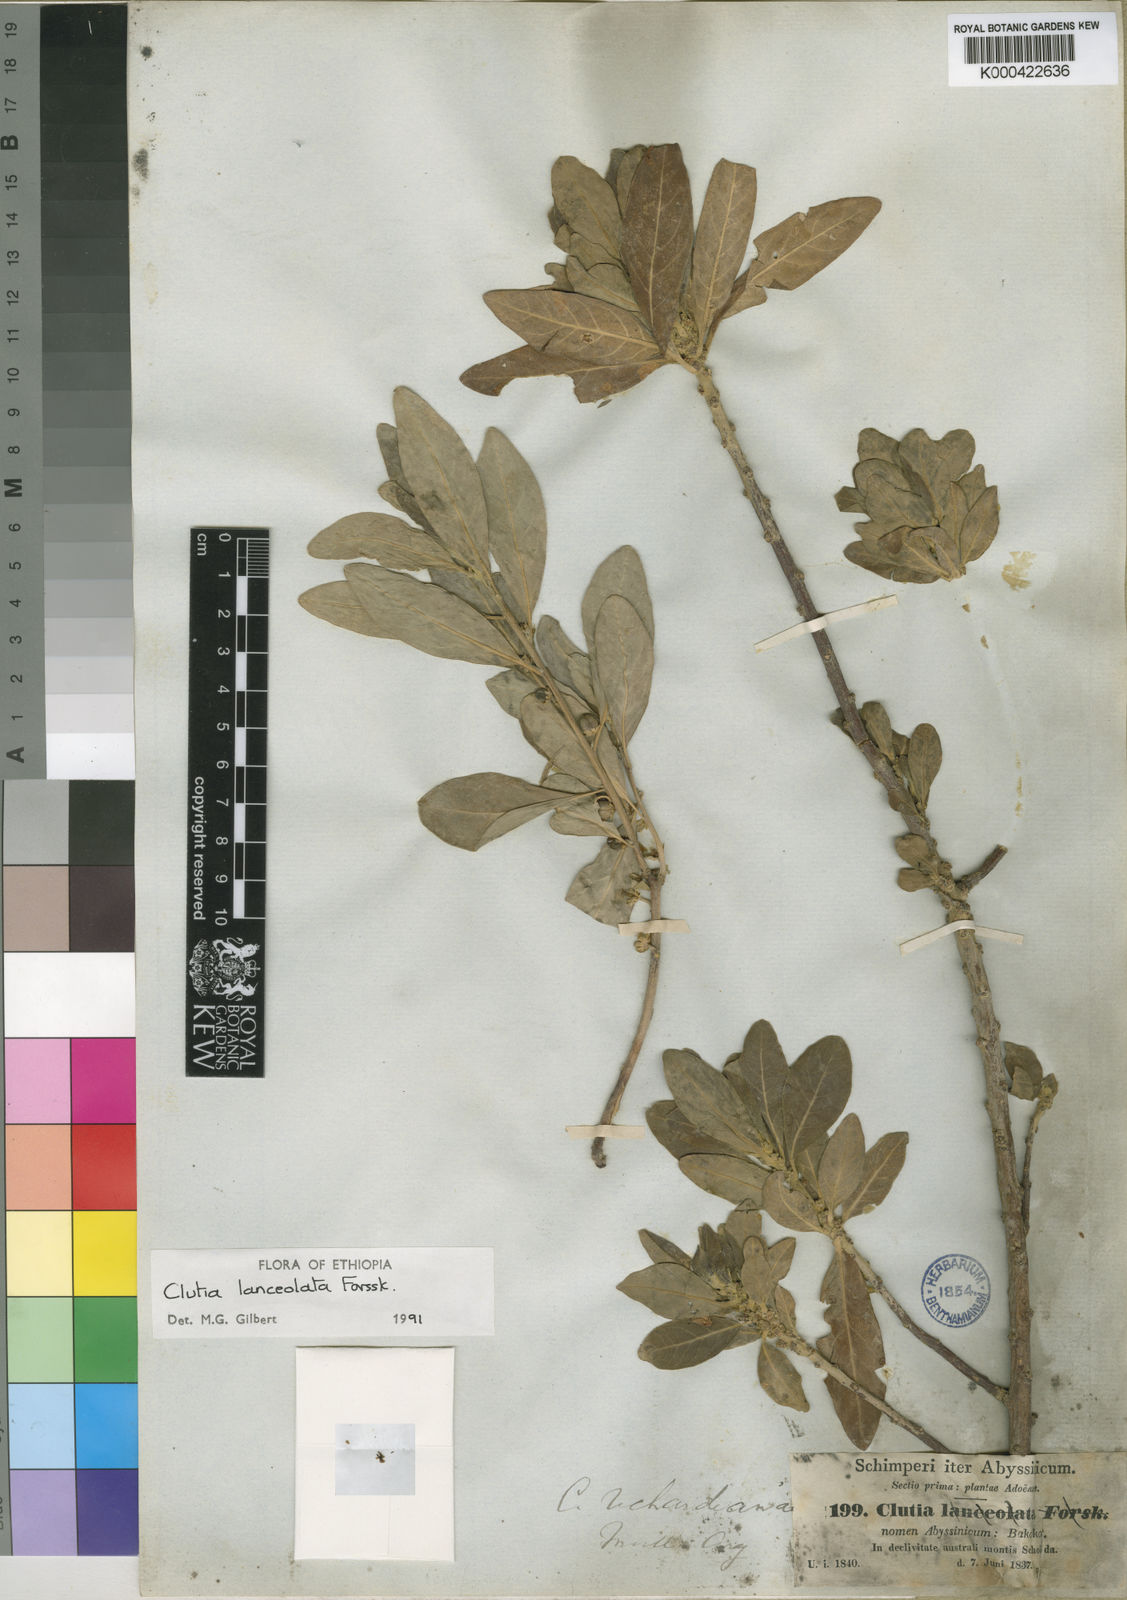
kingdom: Plantae
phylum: Tracheophyta
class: Magnoliopsida
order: Malpighiales
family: Peraceae
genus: Clutia
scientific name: Clutia lanceolata
